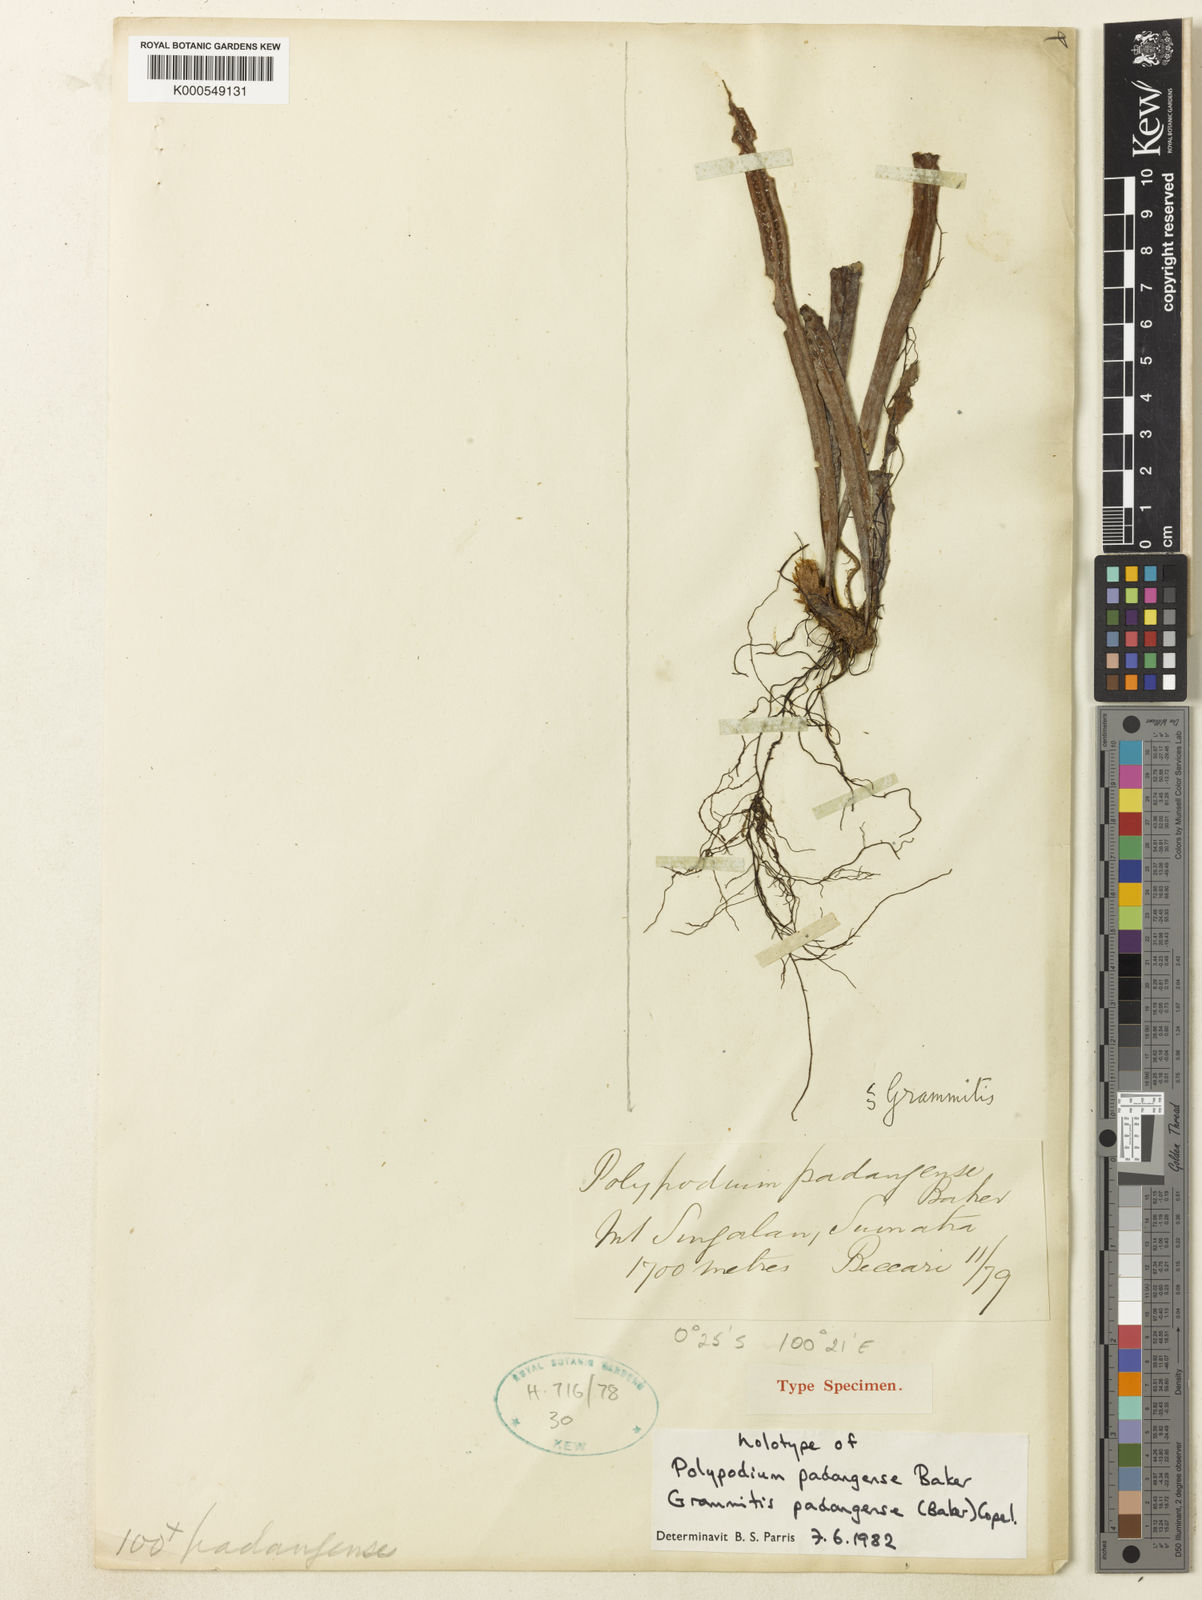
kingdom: Plantae
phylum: Tracheophyta
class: Polypodiopsida
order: Polypodiales
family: Polypodiaceae
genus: Oreogrammitis
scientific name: Oreogrammitis padangensis
